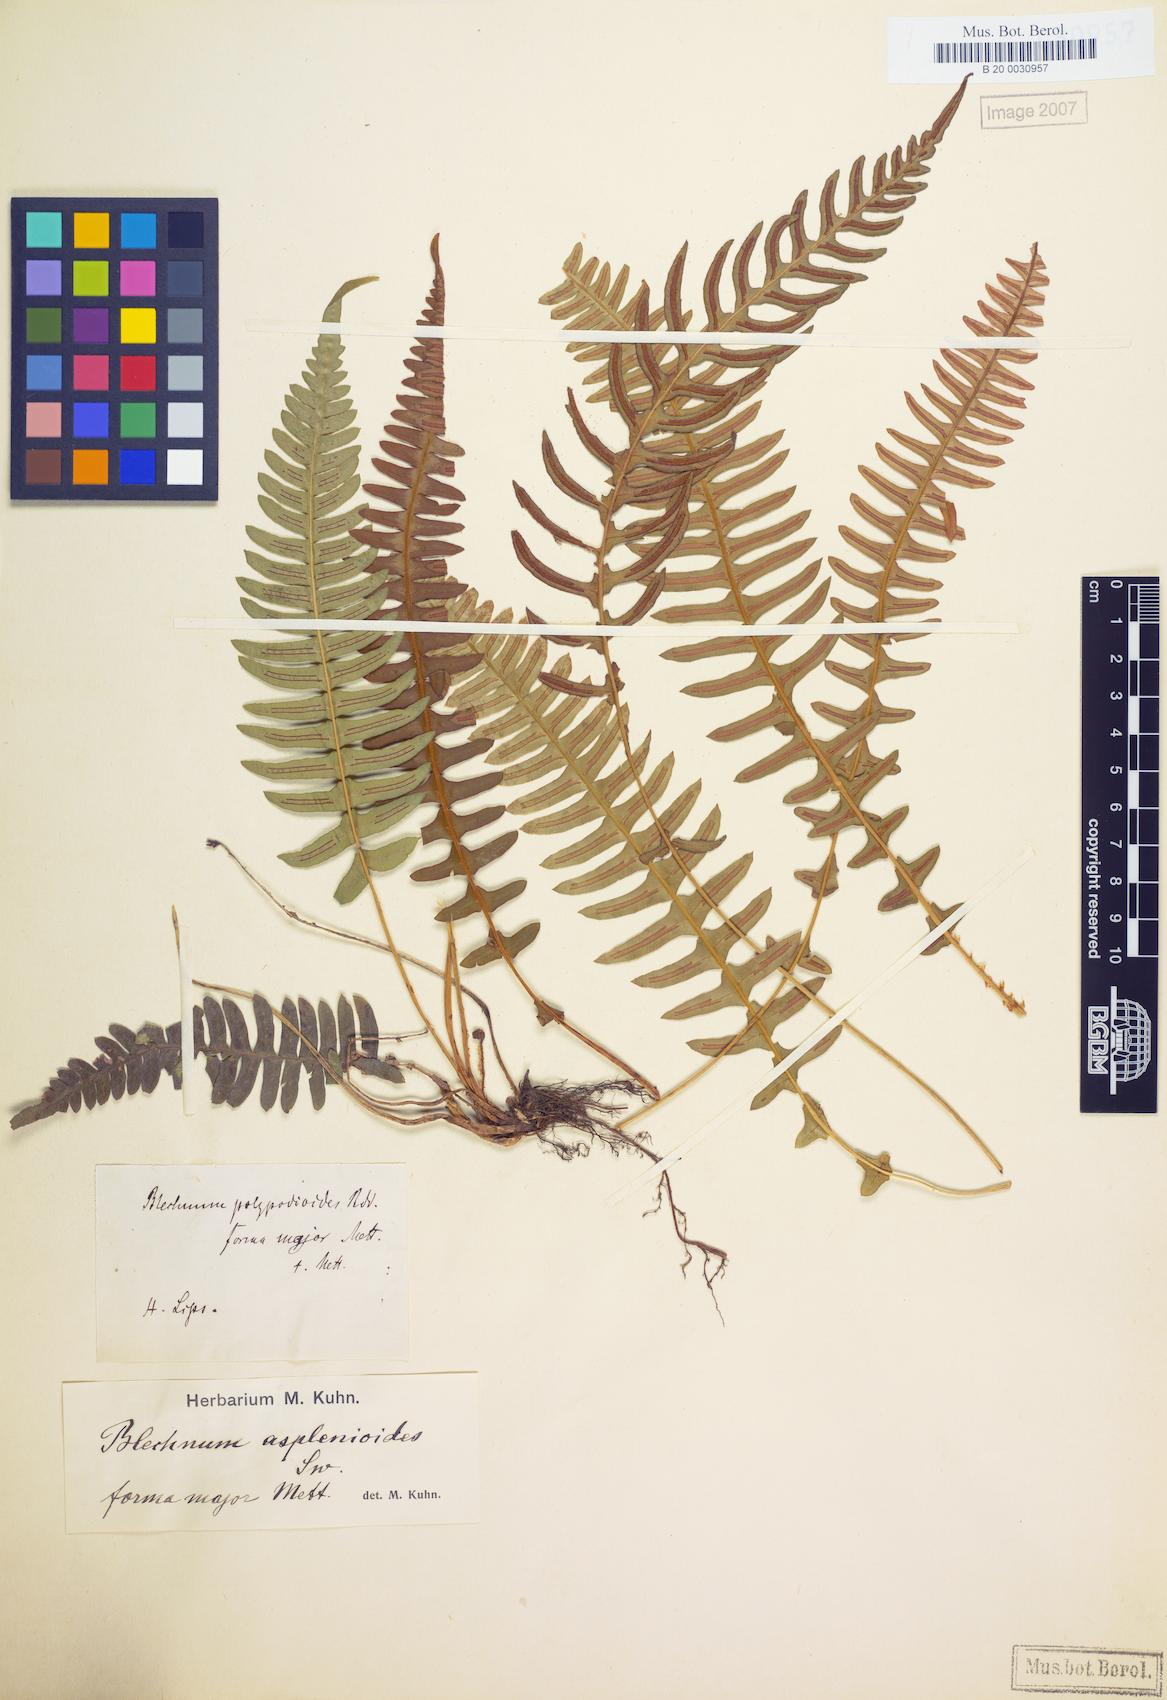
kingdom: Plantae
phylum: Tracheophyta
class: Polypodiopsida
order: Polypodiales
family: Blechnaceae
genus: Blechnum
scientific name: Blechnum laevigatum
